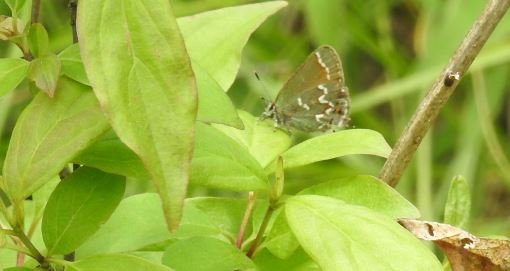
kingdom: Animalia
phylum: Arthropoda
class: Insecta
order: Lepidoptera
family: Lycaenidae
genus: Mitoura
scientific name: Mitoura gryneus
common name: Juniper Hairstreak
